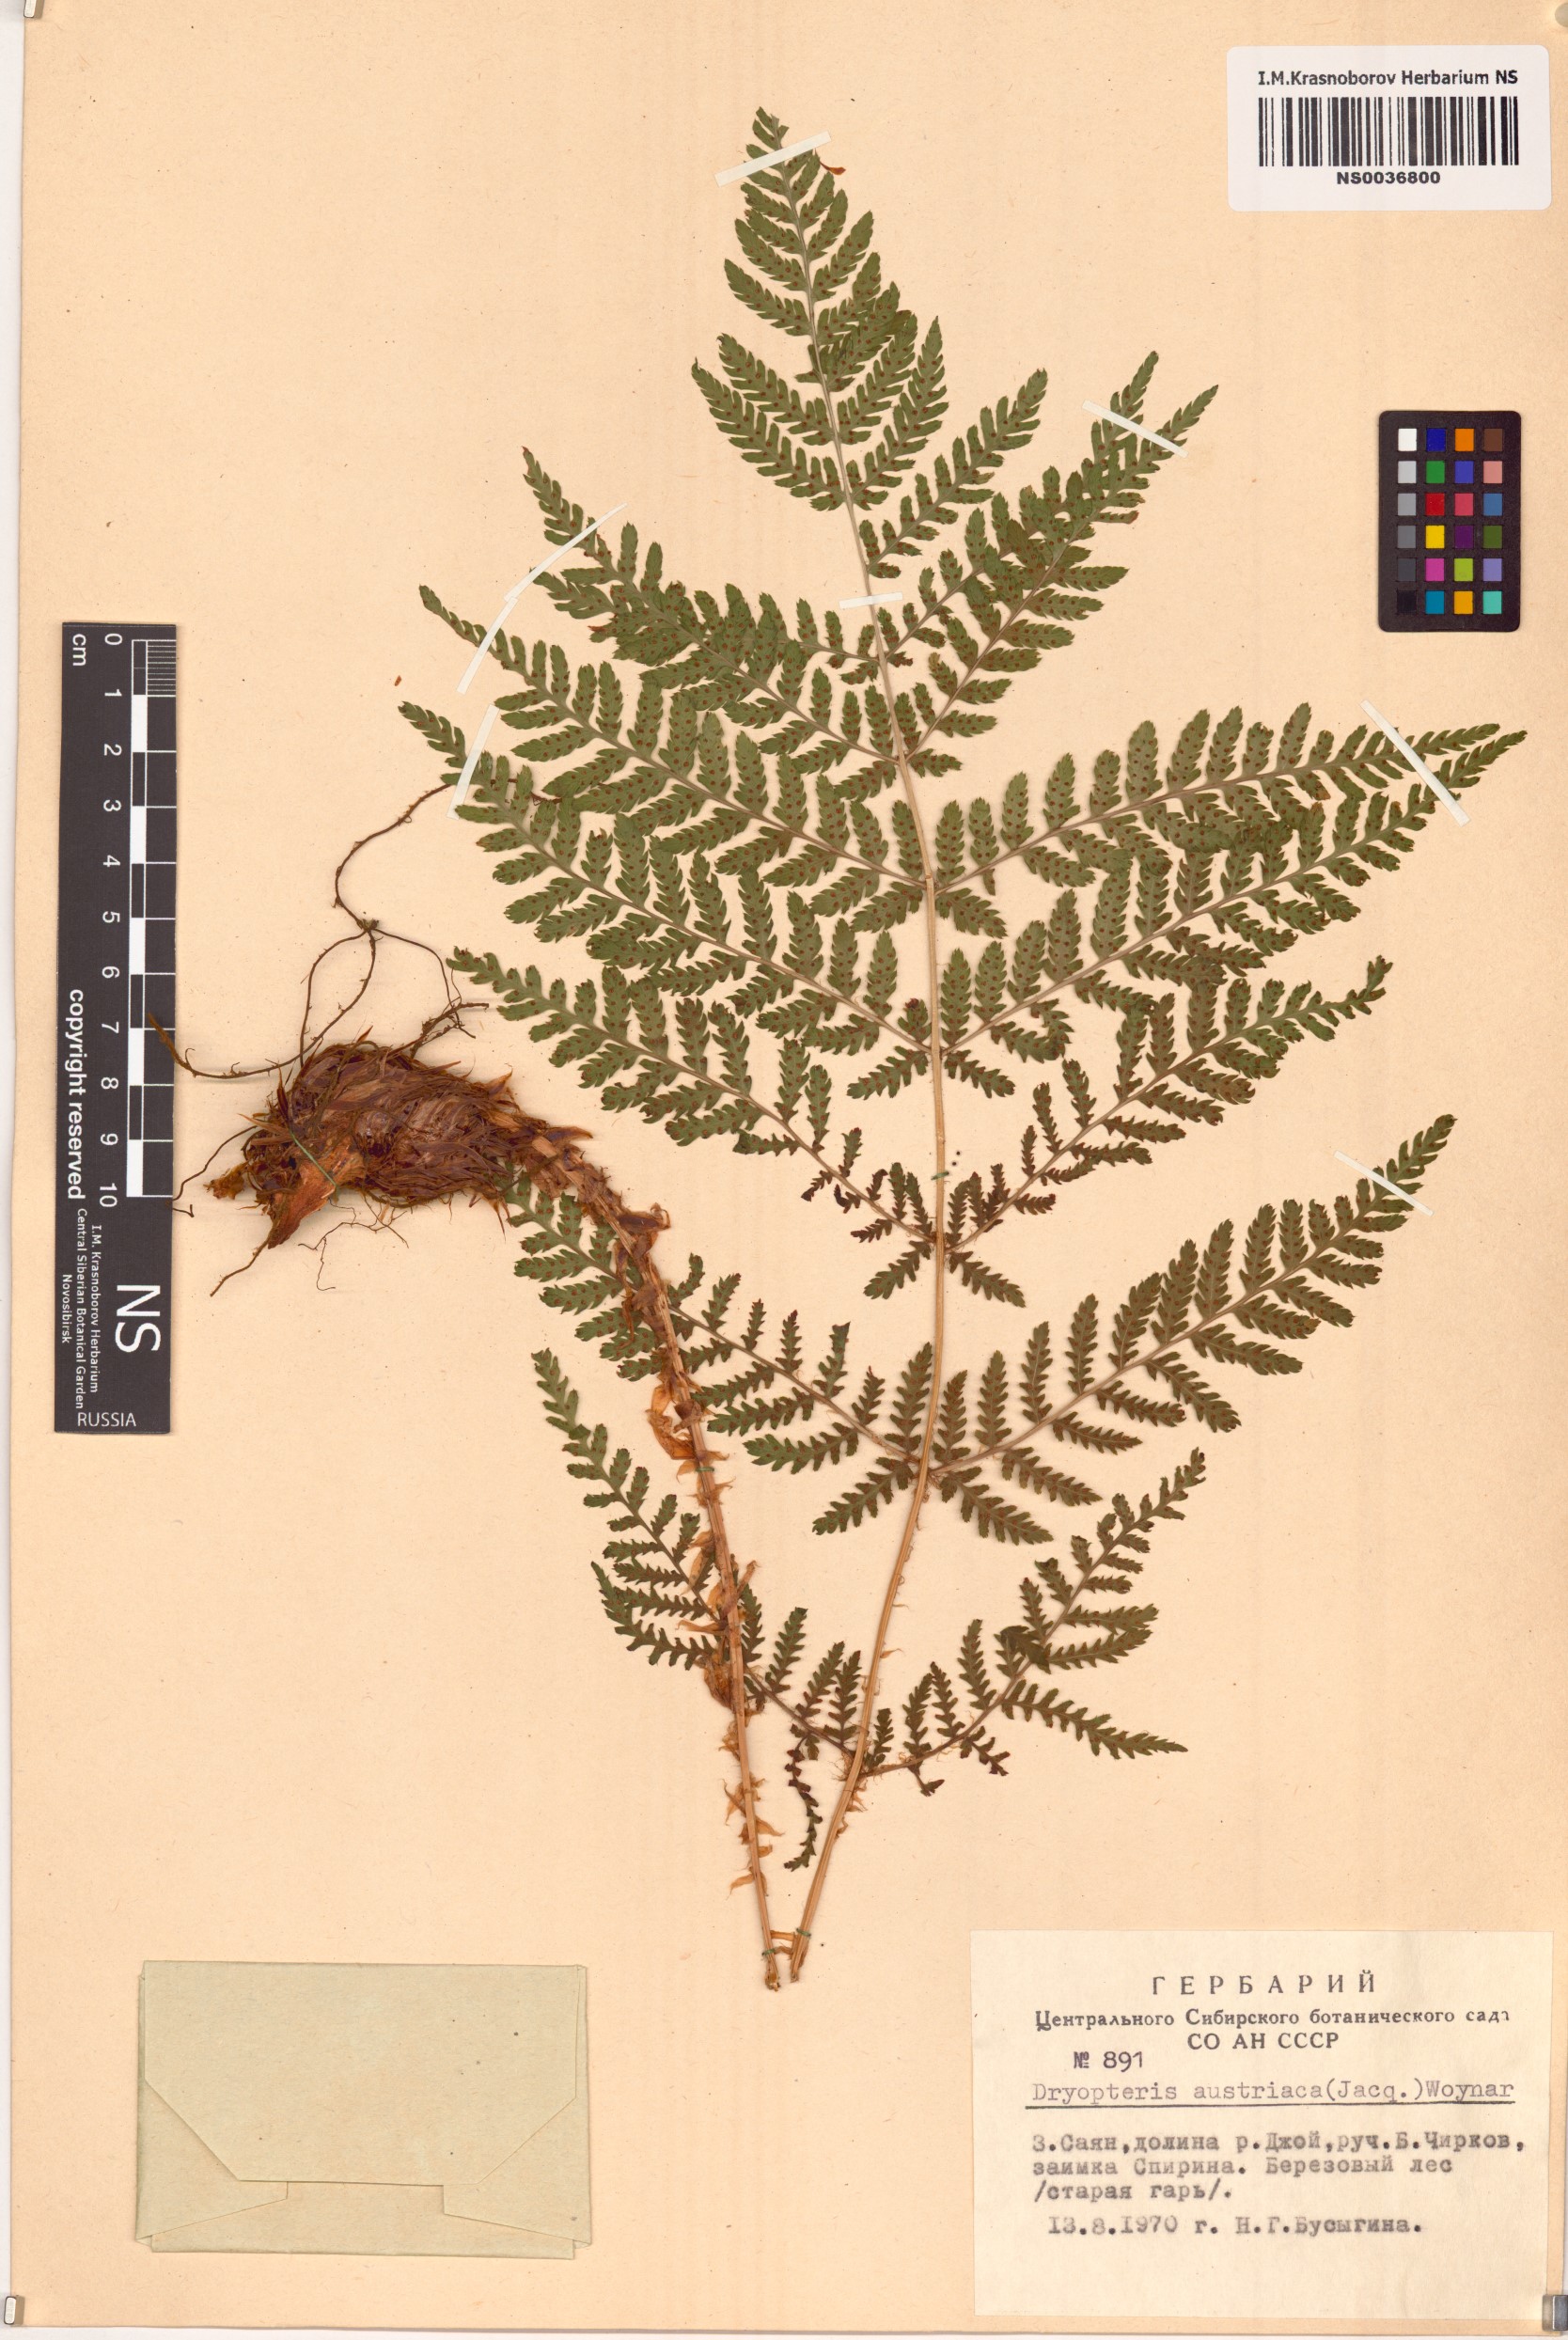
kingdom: Plantae
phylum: Tracheophyta
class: Polypodiopsida
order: Polypodiales
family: Dryopteridaceae
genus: Dryopteris
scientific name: Dryopteris dilatata
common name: Broad buckler-fern
